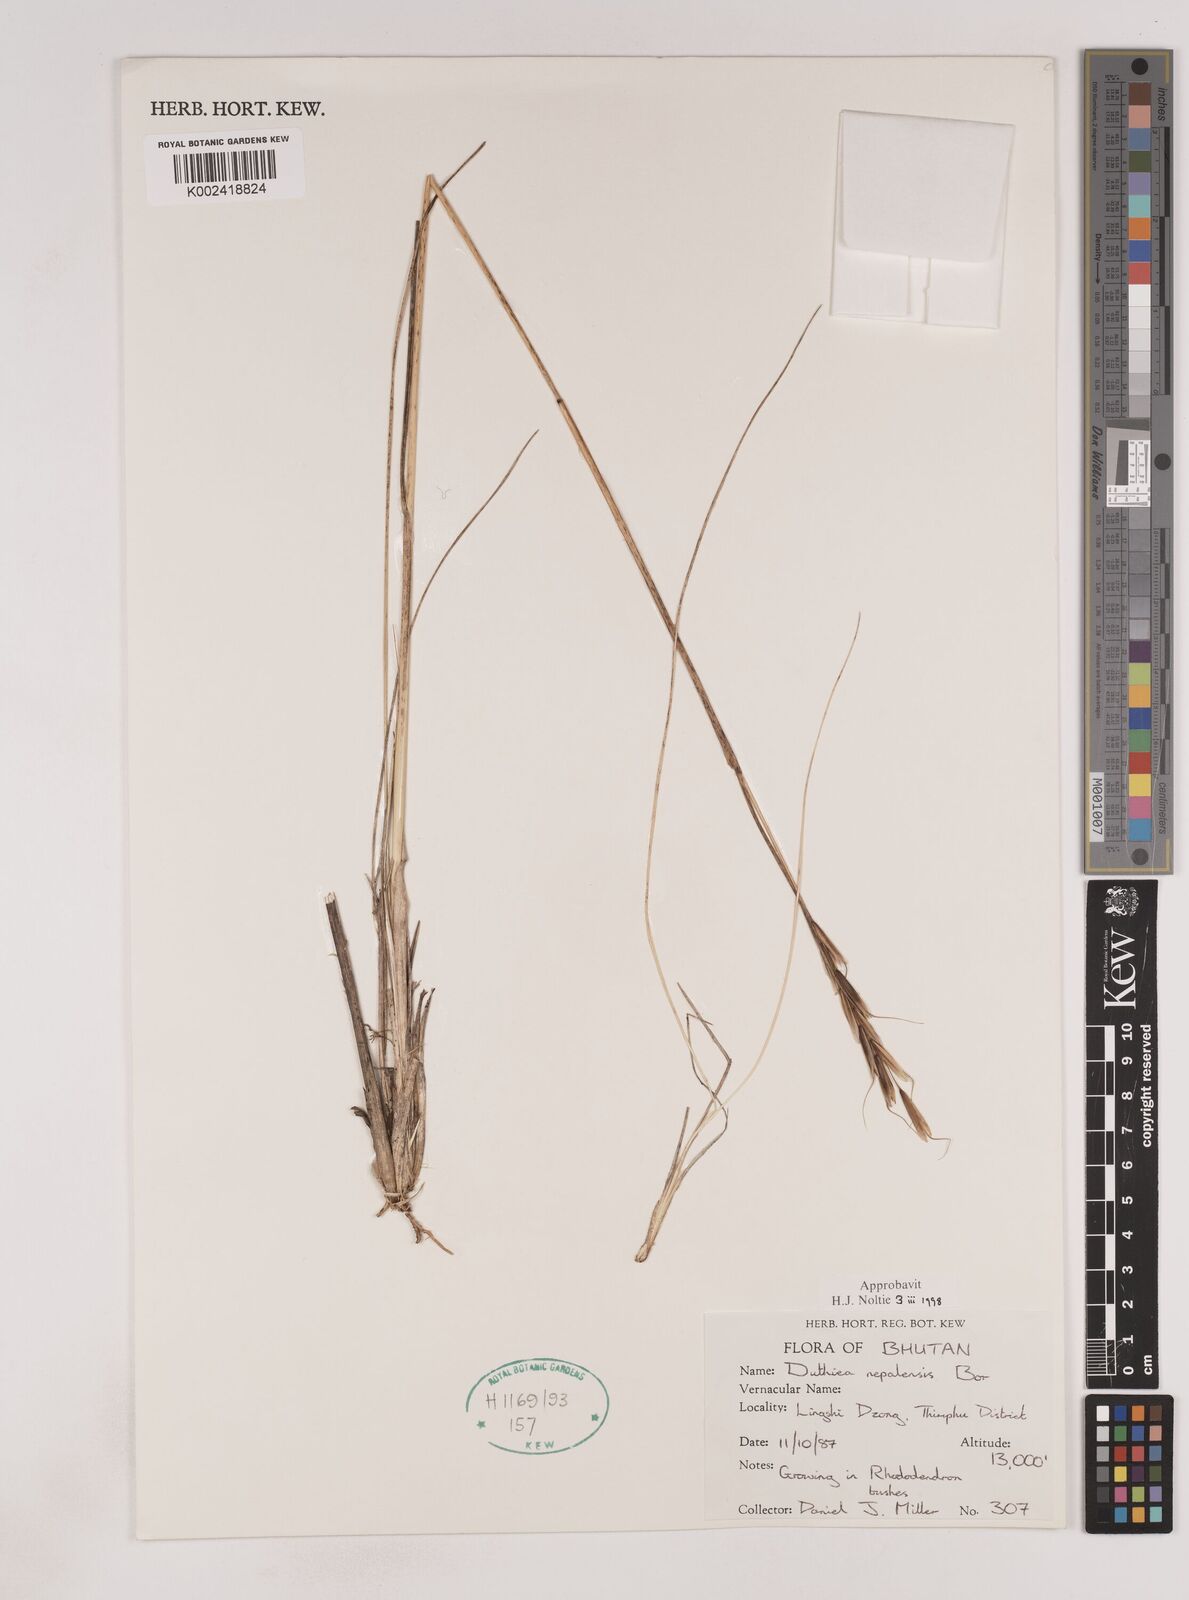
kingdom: Plantae
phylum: Tracheophyta
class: Liliopsida
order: Poales
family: Poaceae
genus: Duthiea
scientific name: Duthiea brachypodium
